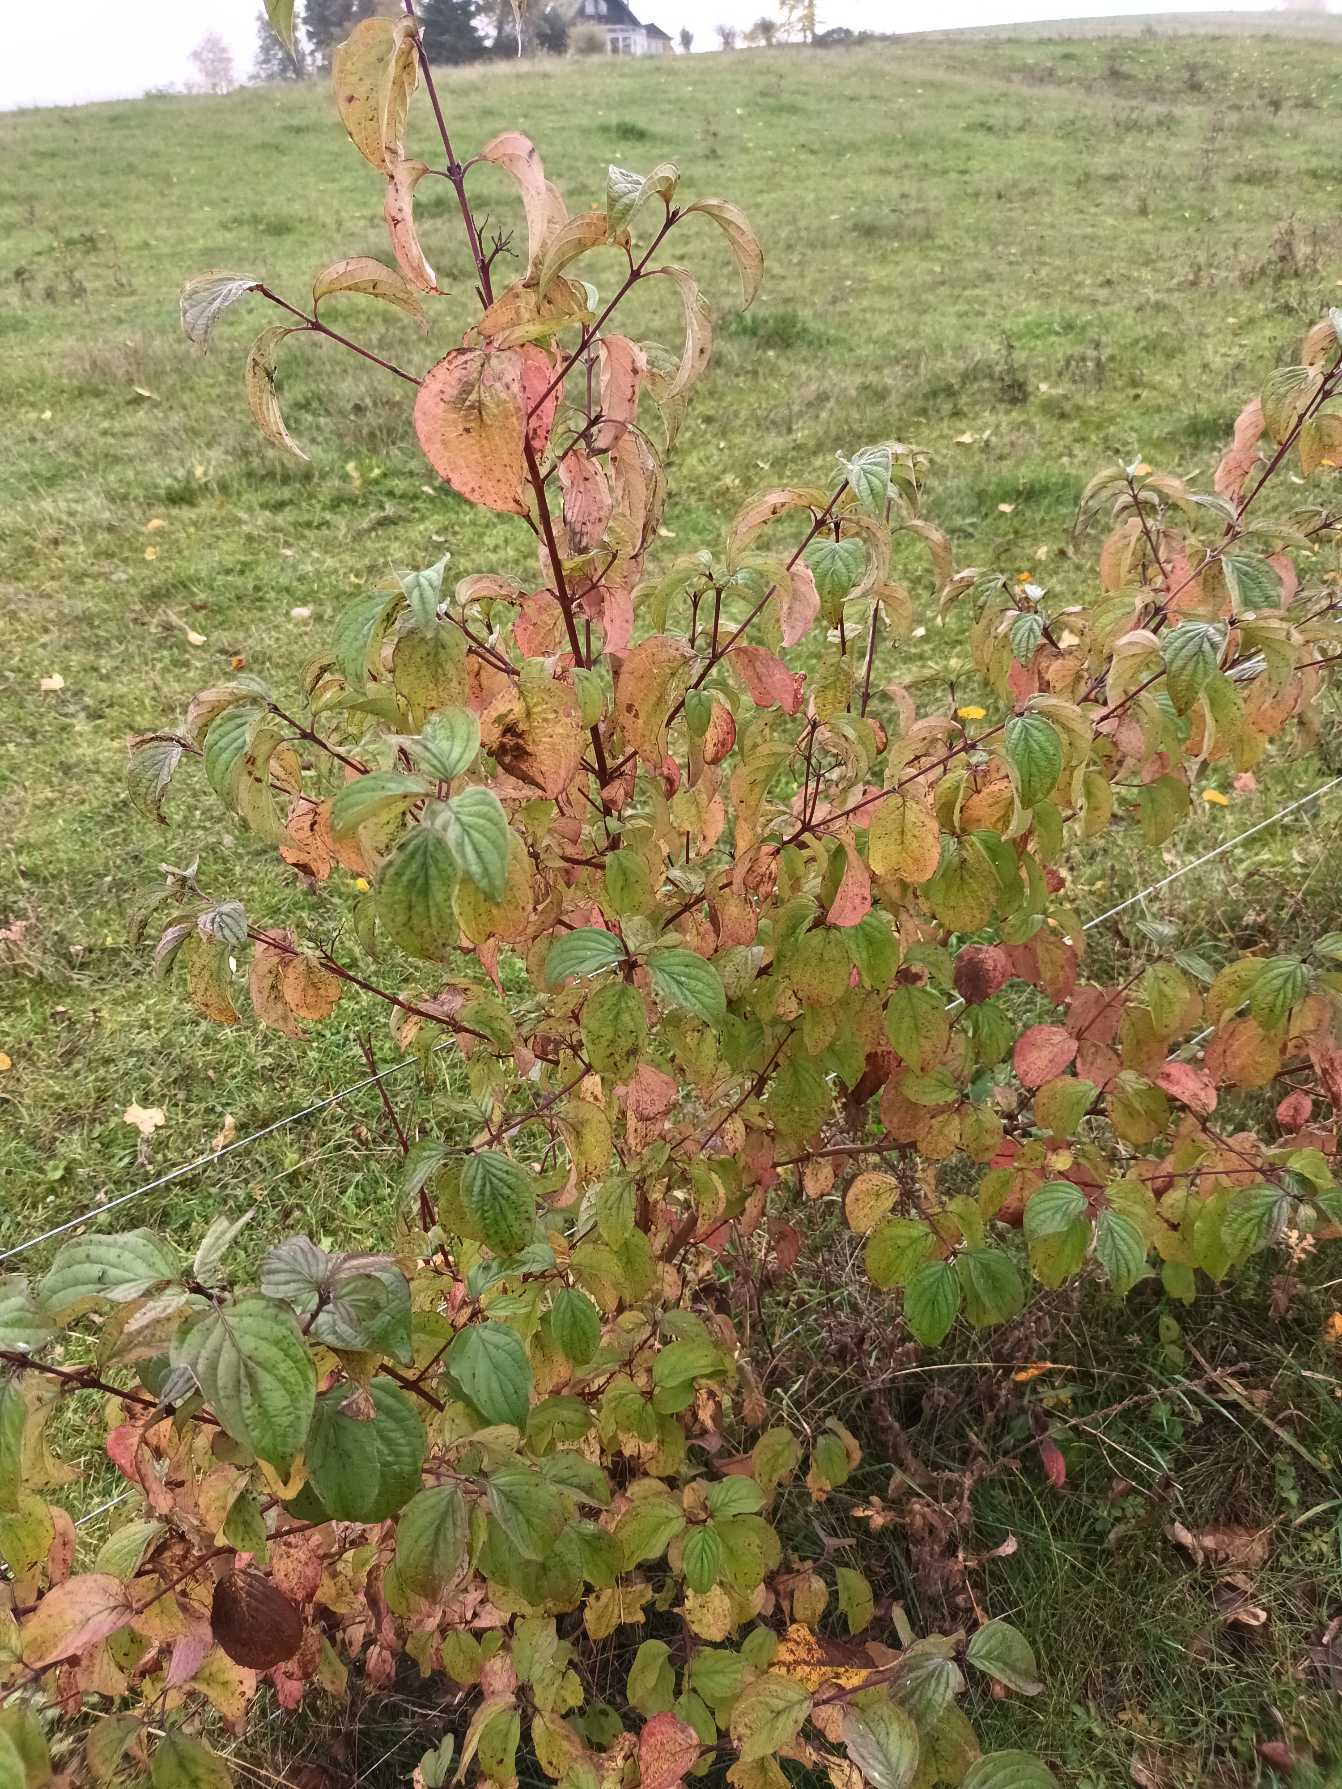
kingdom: Plantae
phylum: Tracheophyta
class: Magnoliopsida
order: Cornales
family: Cornaceae
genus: Cornus
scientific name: Cornus sanguinea
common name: Rød kornel
